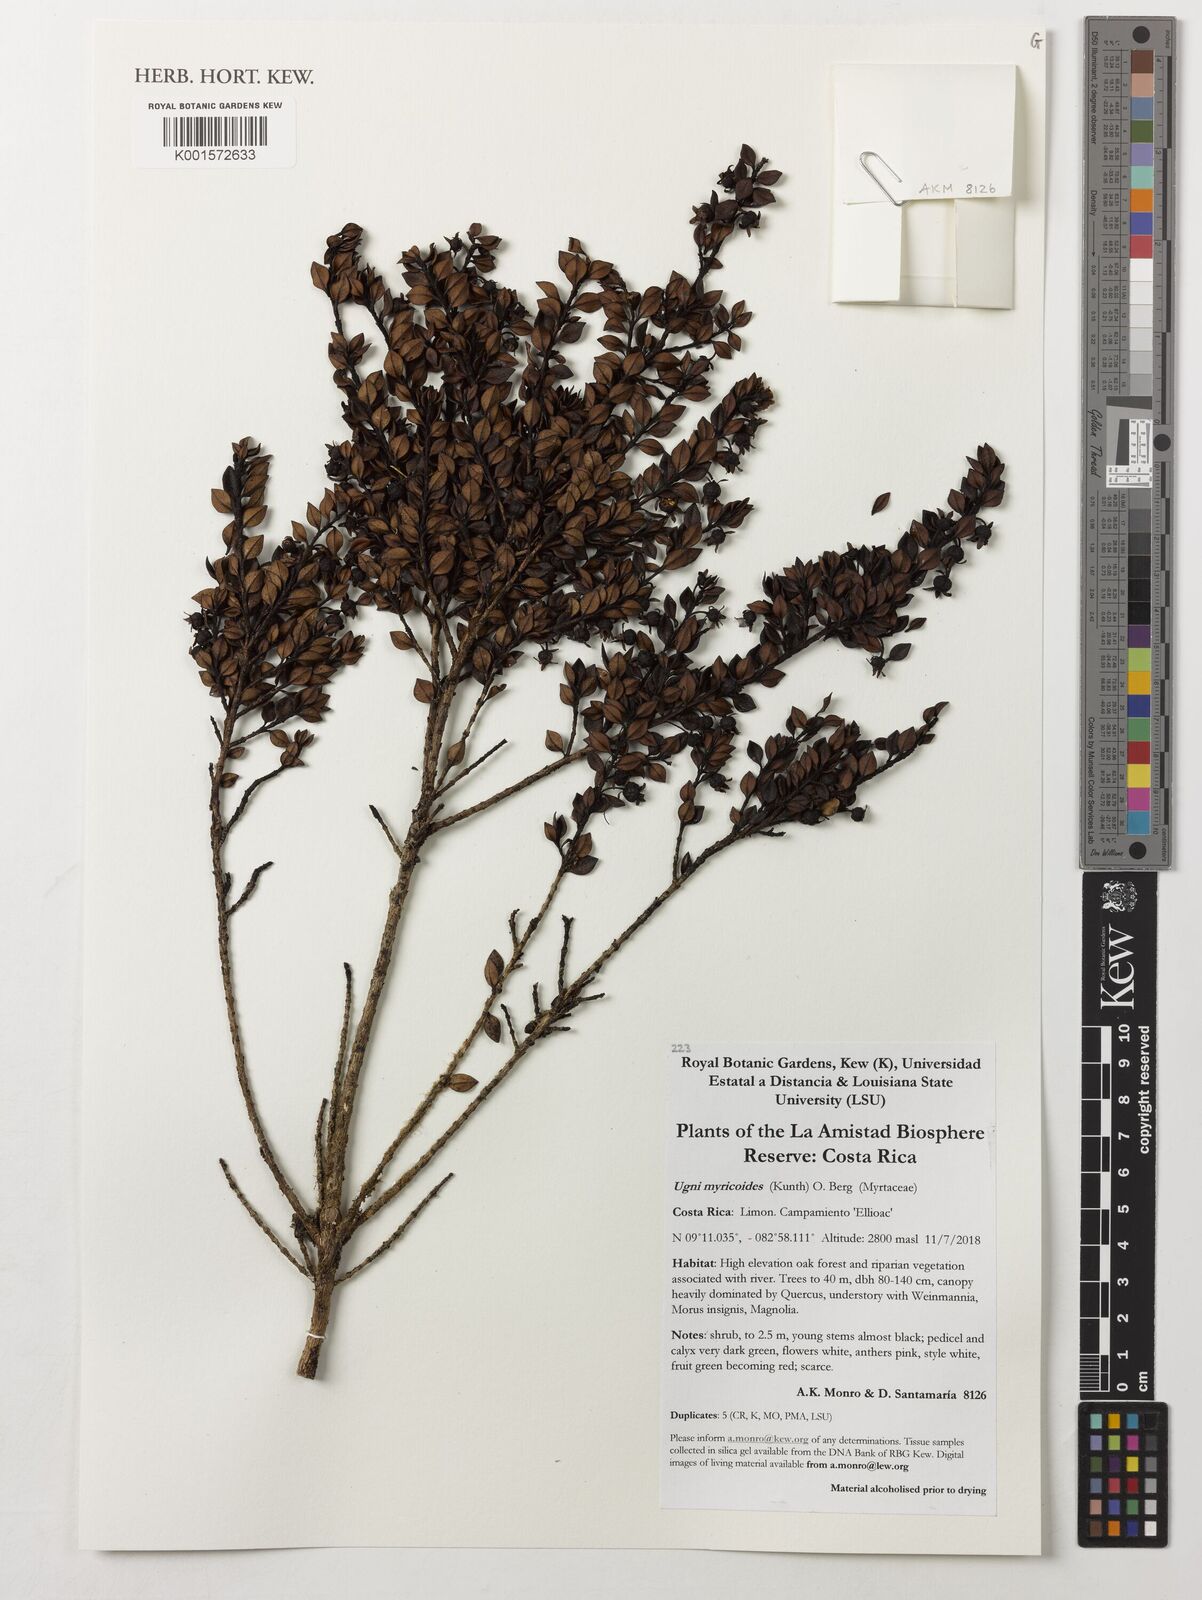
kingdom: Plantae
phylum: Tracheophyta
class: Magnoliopsida
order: Myrtales
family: Myrtaceae
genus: Ugni
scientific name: Ugni myricoides
